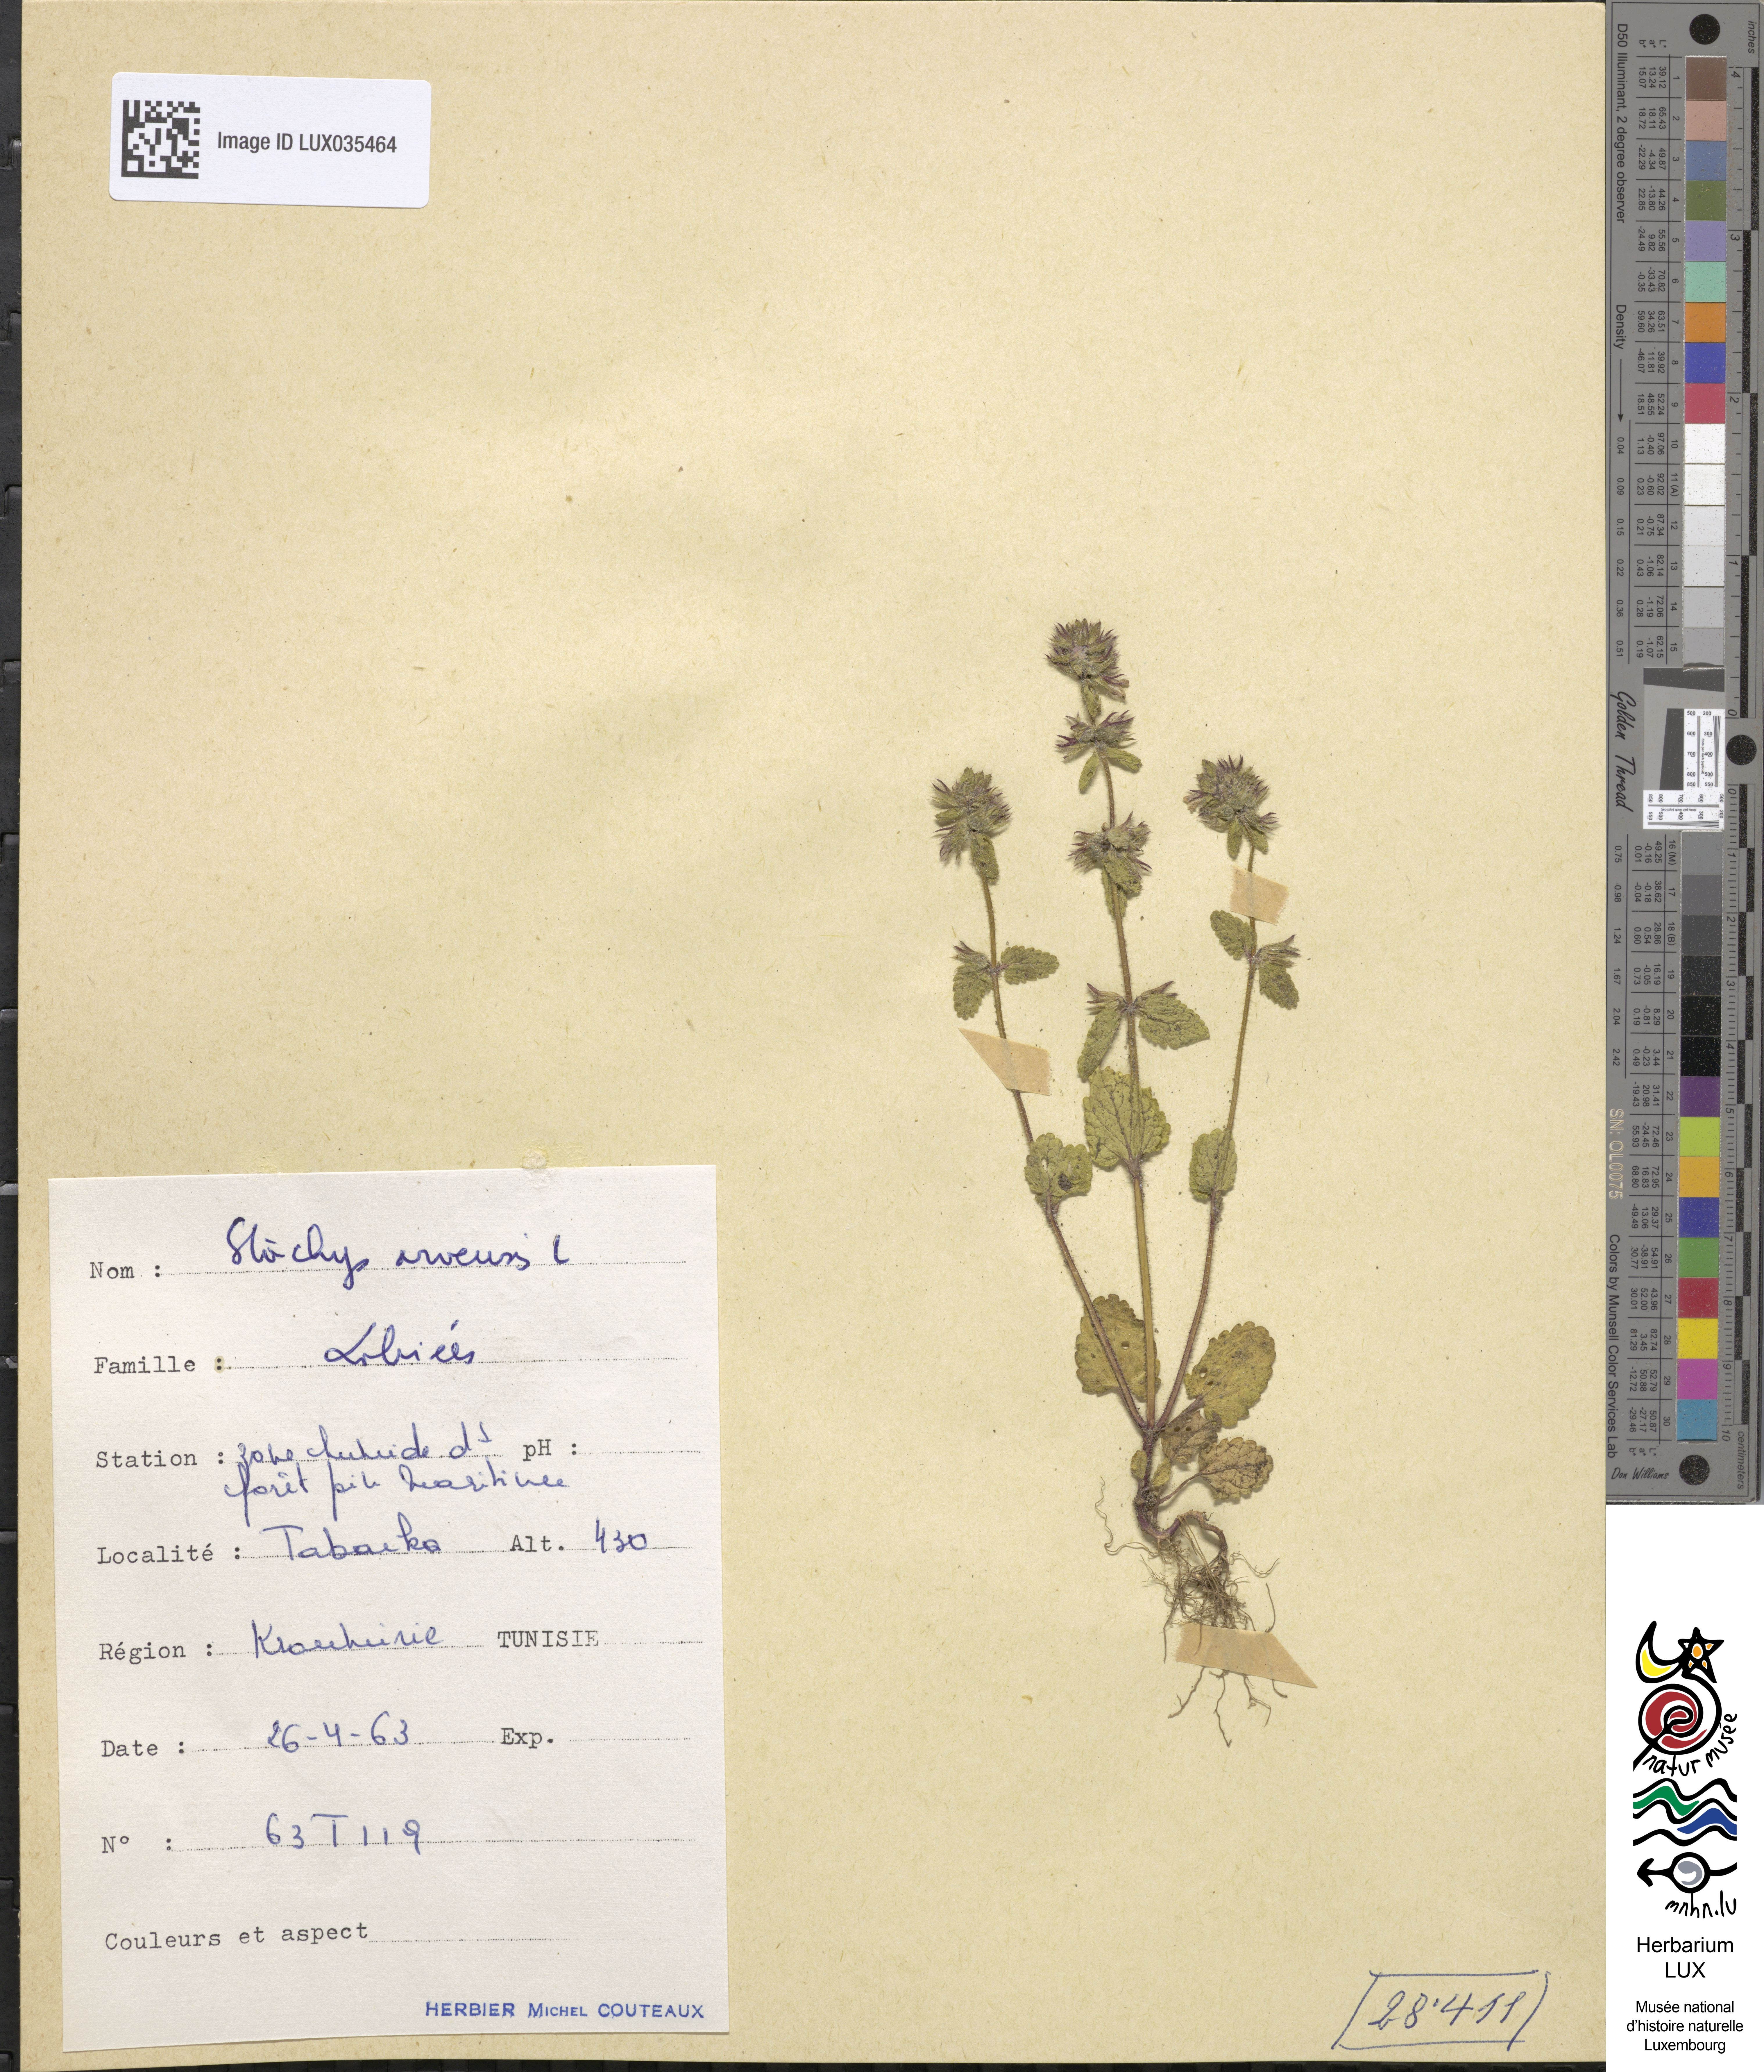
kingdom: Plantae
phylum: Tracheophyta
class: Magnoliopsida
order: Lamiales
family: Lamiaceae
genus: Stachys
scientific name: Stachys arvensis
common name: Field woundwort
